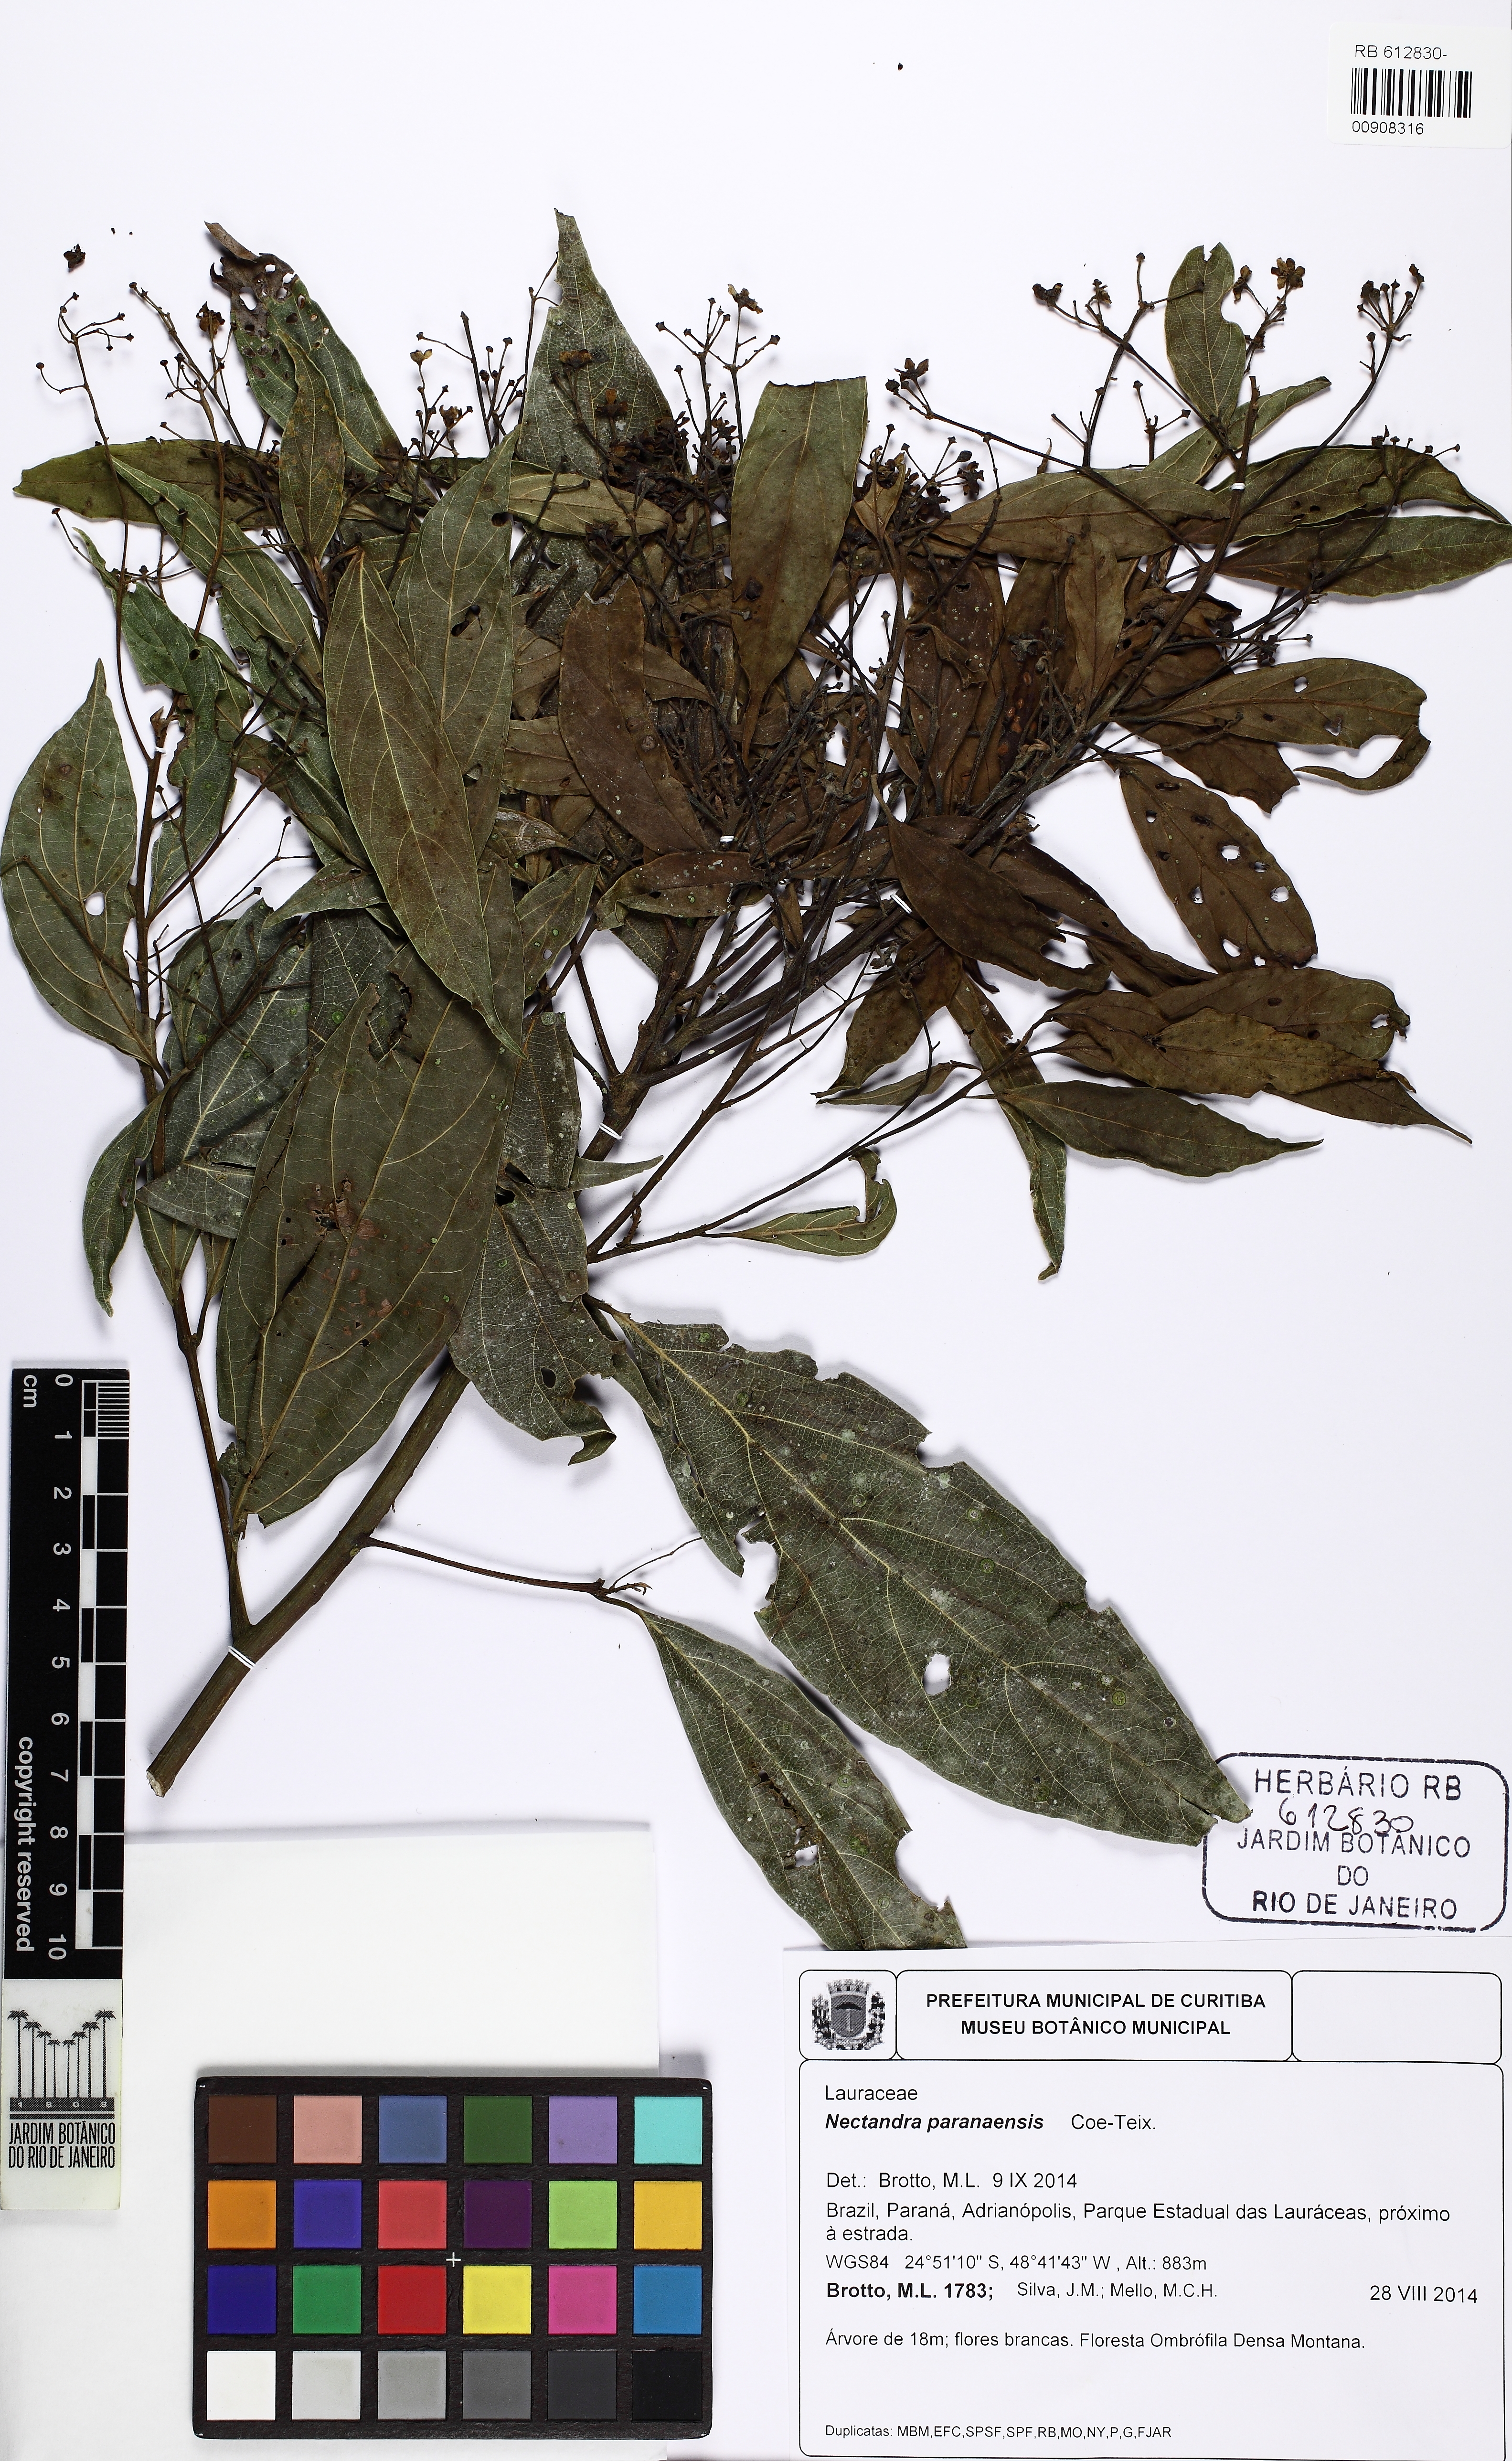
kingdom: Plantae
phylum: Tracheophyta
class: Magnoliopsida
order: Laurales
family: Lauraceae
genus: Nectandra
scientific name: Nectandra paranaensis
